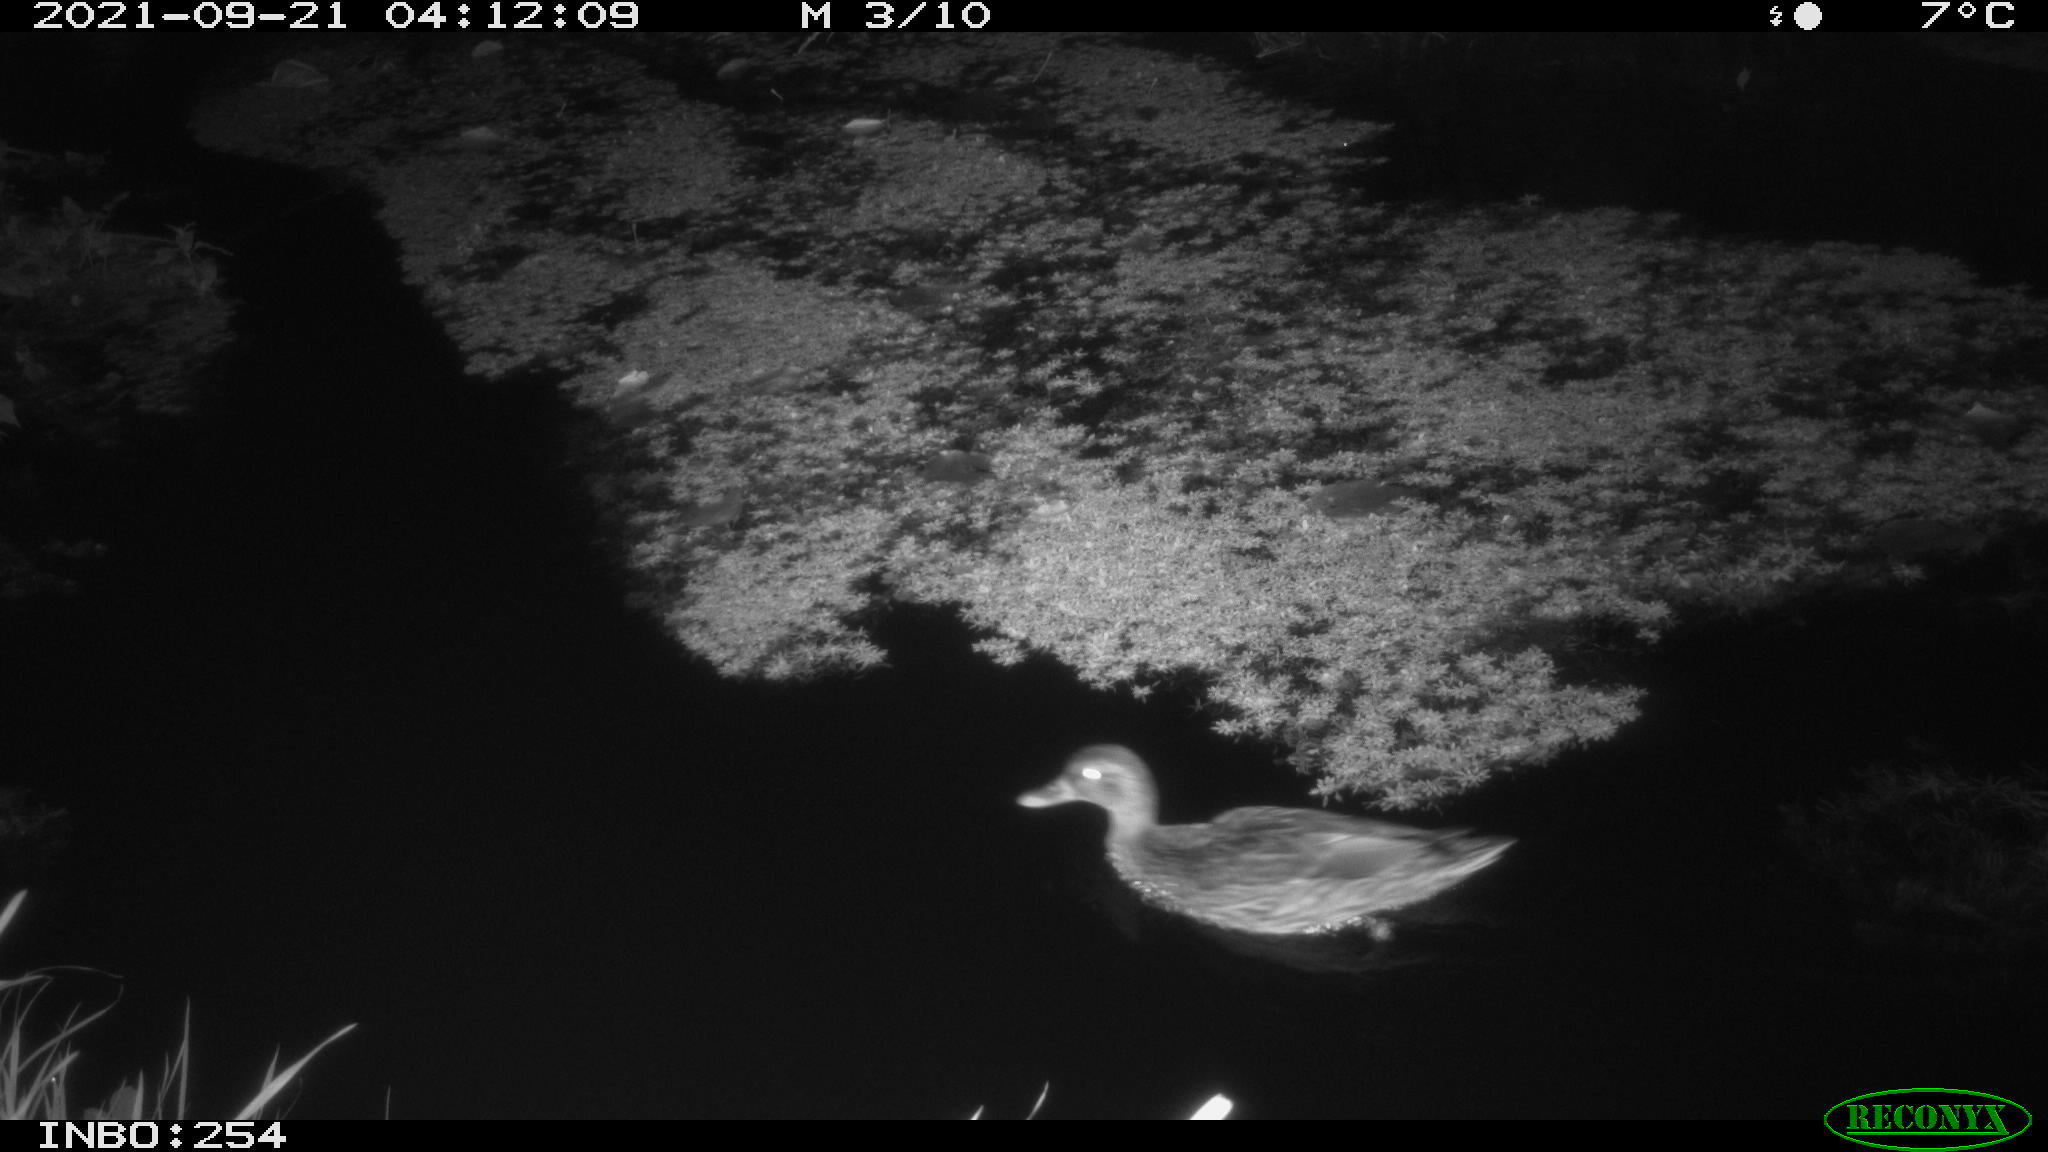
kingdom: Animalia
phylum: Chordata
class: Aves
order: Anseriformes
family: Anatidae
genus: Anas
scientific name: Anas platyrhynchos
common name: Mallard
